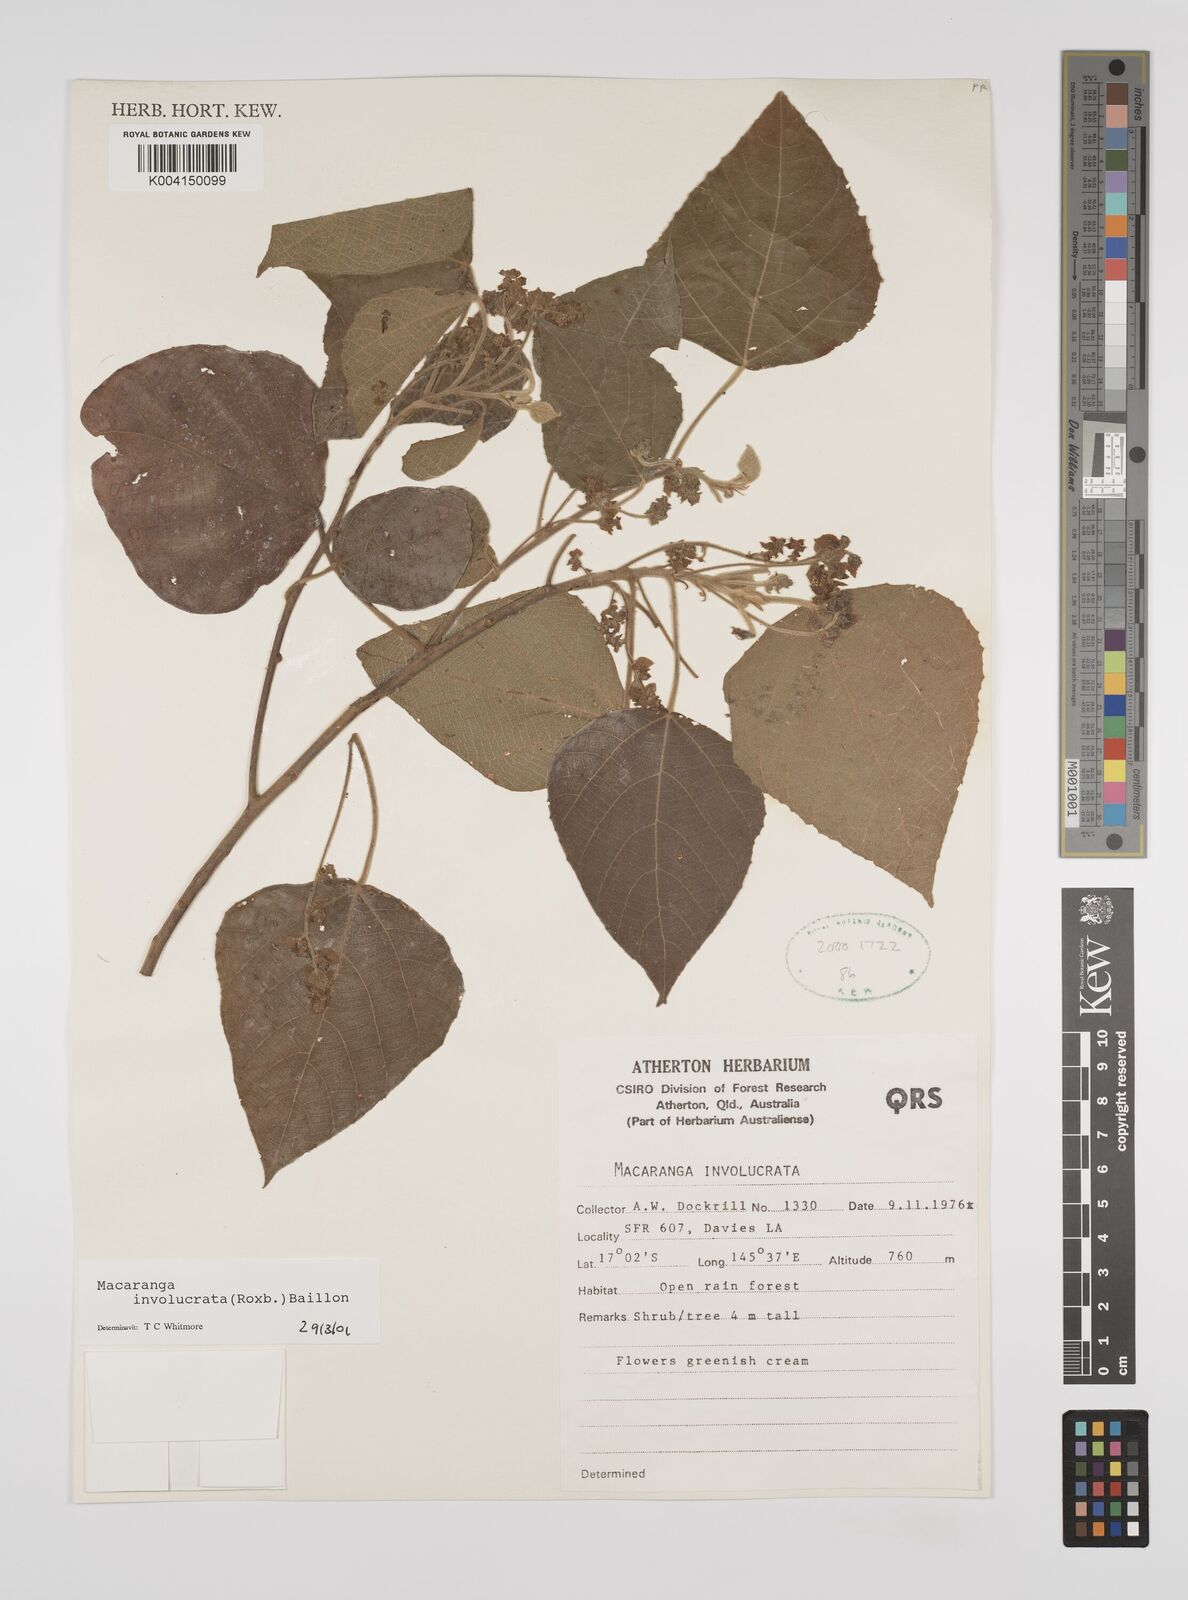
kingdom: Plantae
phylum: Tracheophyta
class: Magnoliopsida
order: Malpighiales
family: Euphorbiaceae
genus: Macaranga
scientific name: Macaranga involucrata
